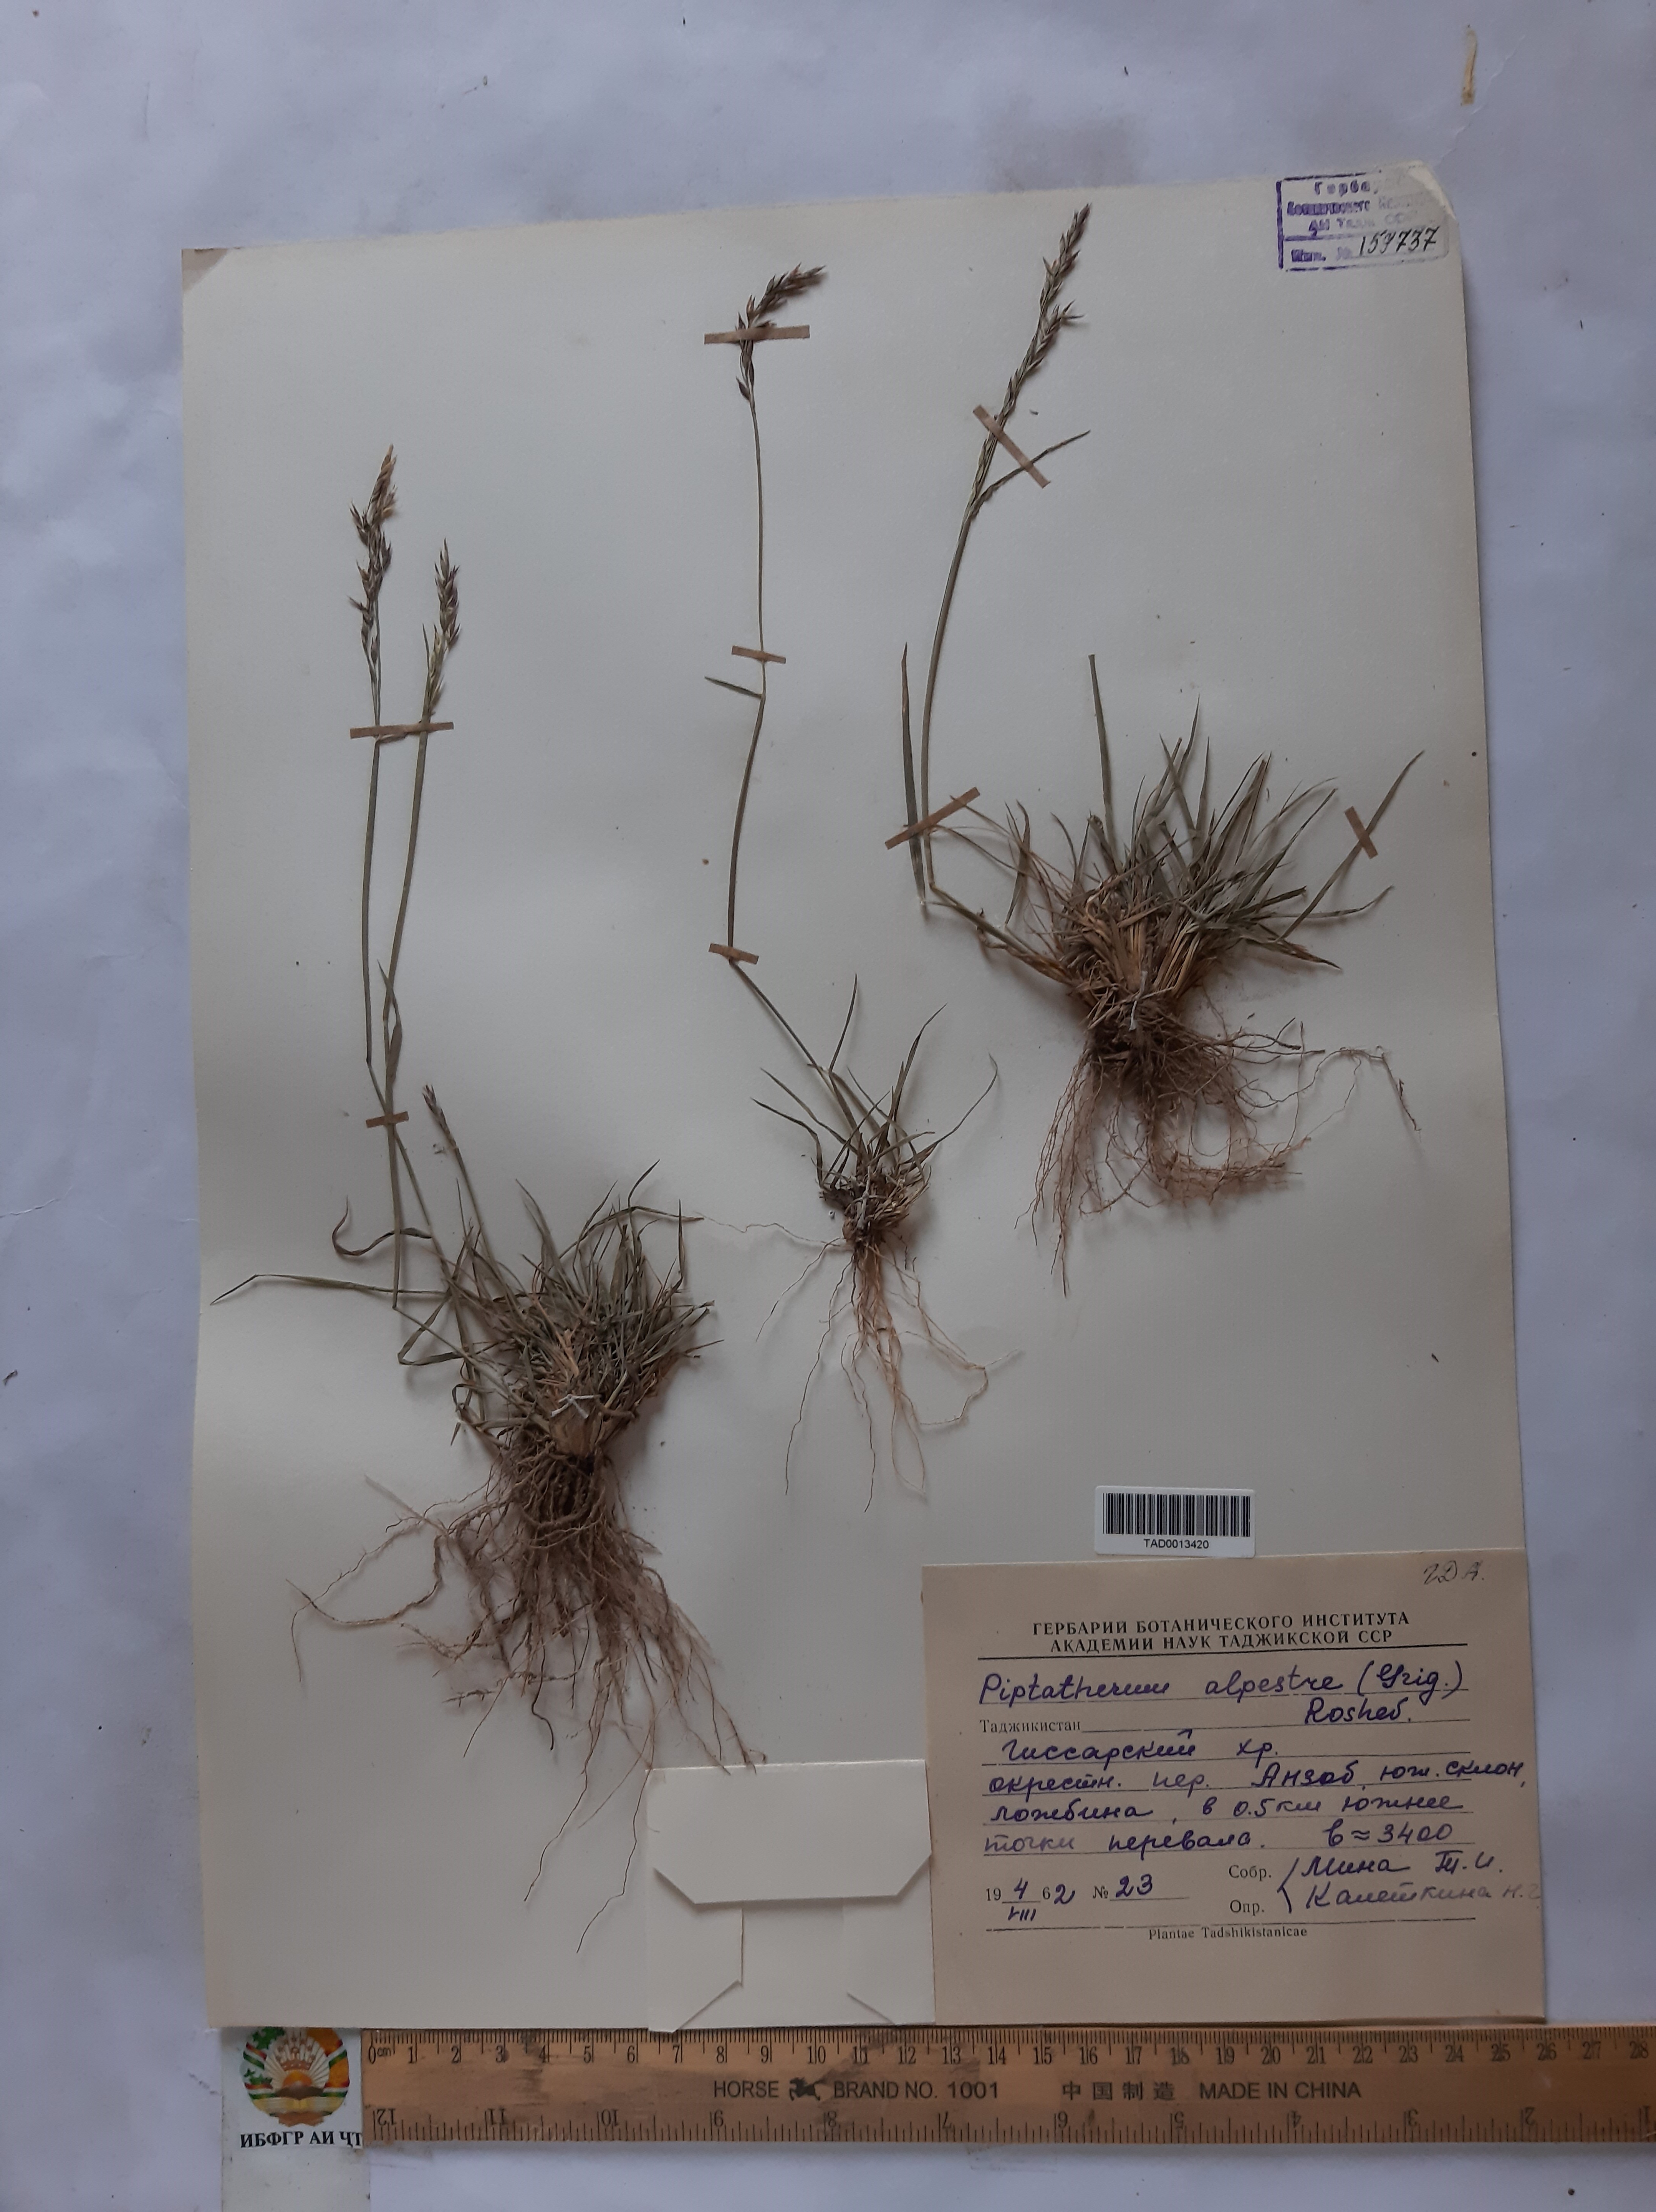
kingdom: Plantae
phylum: Tracheophyta
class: Liliopsida
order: Poales
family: Poaceae
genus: Piptatherum
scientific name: Piptatherum alpestre
